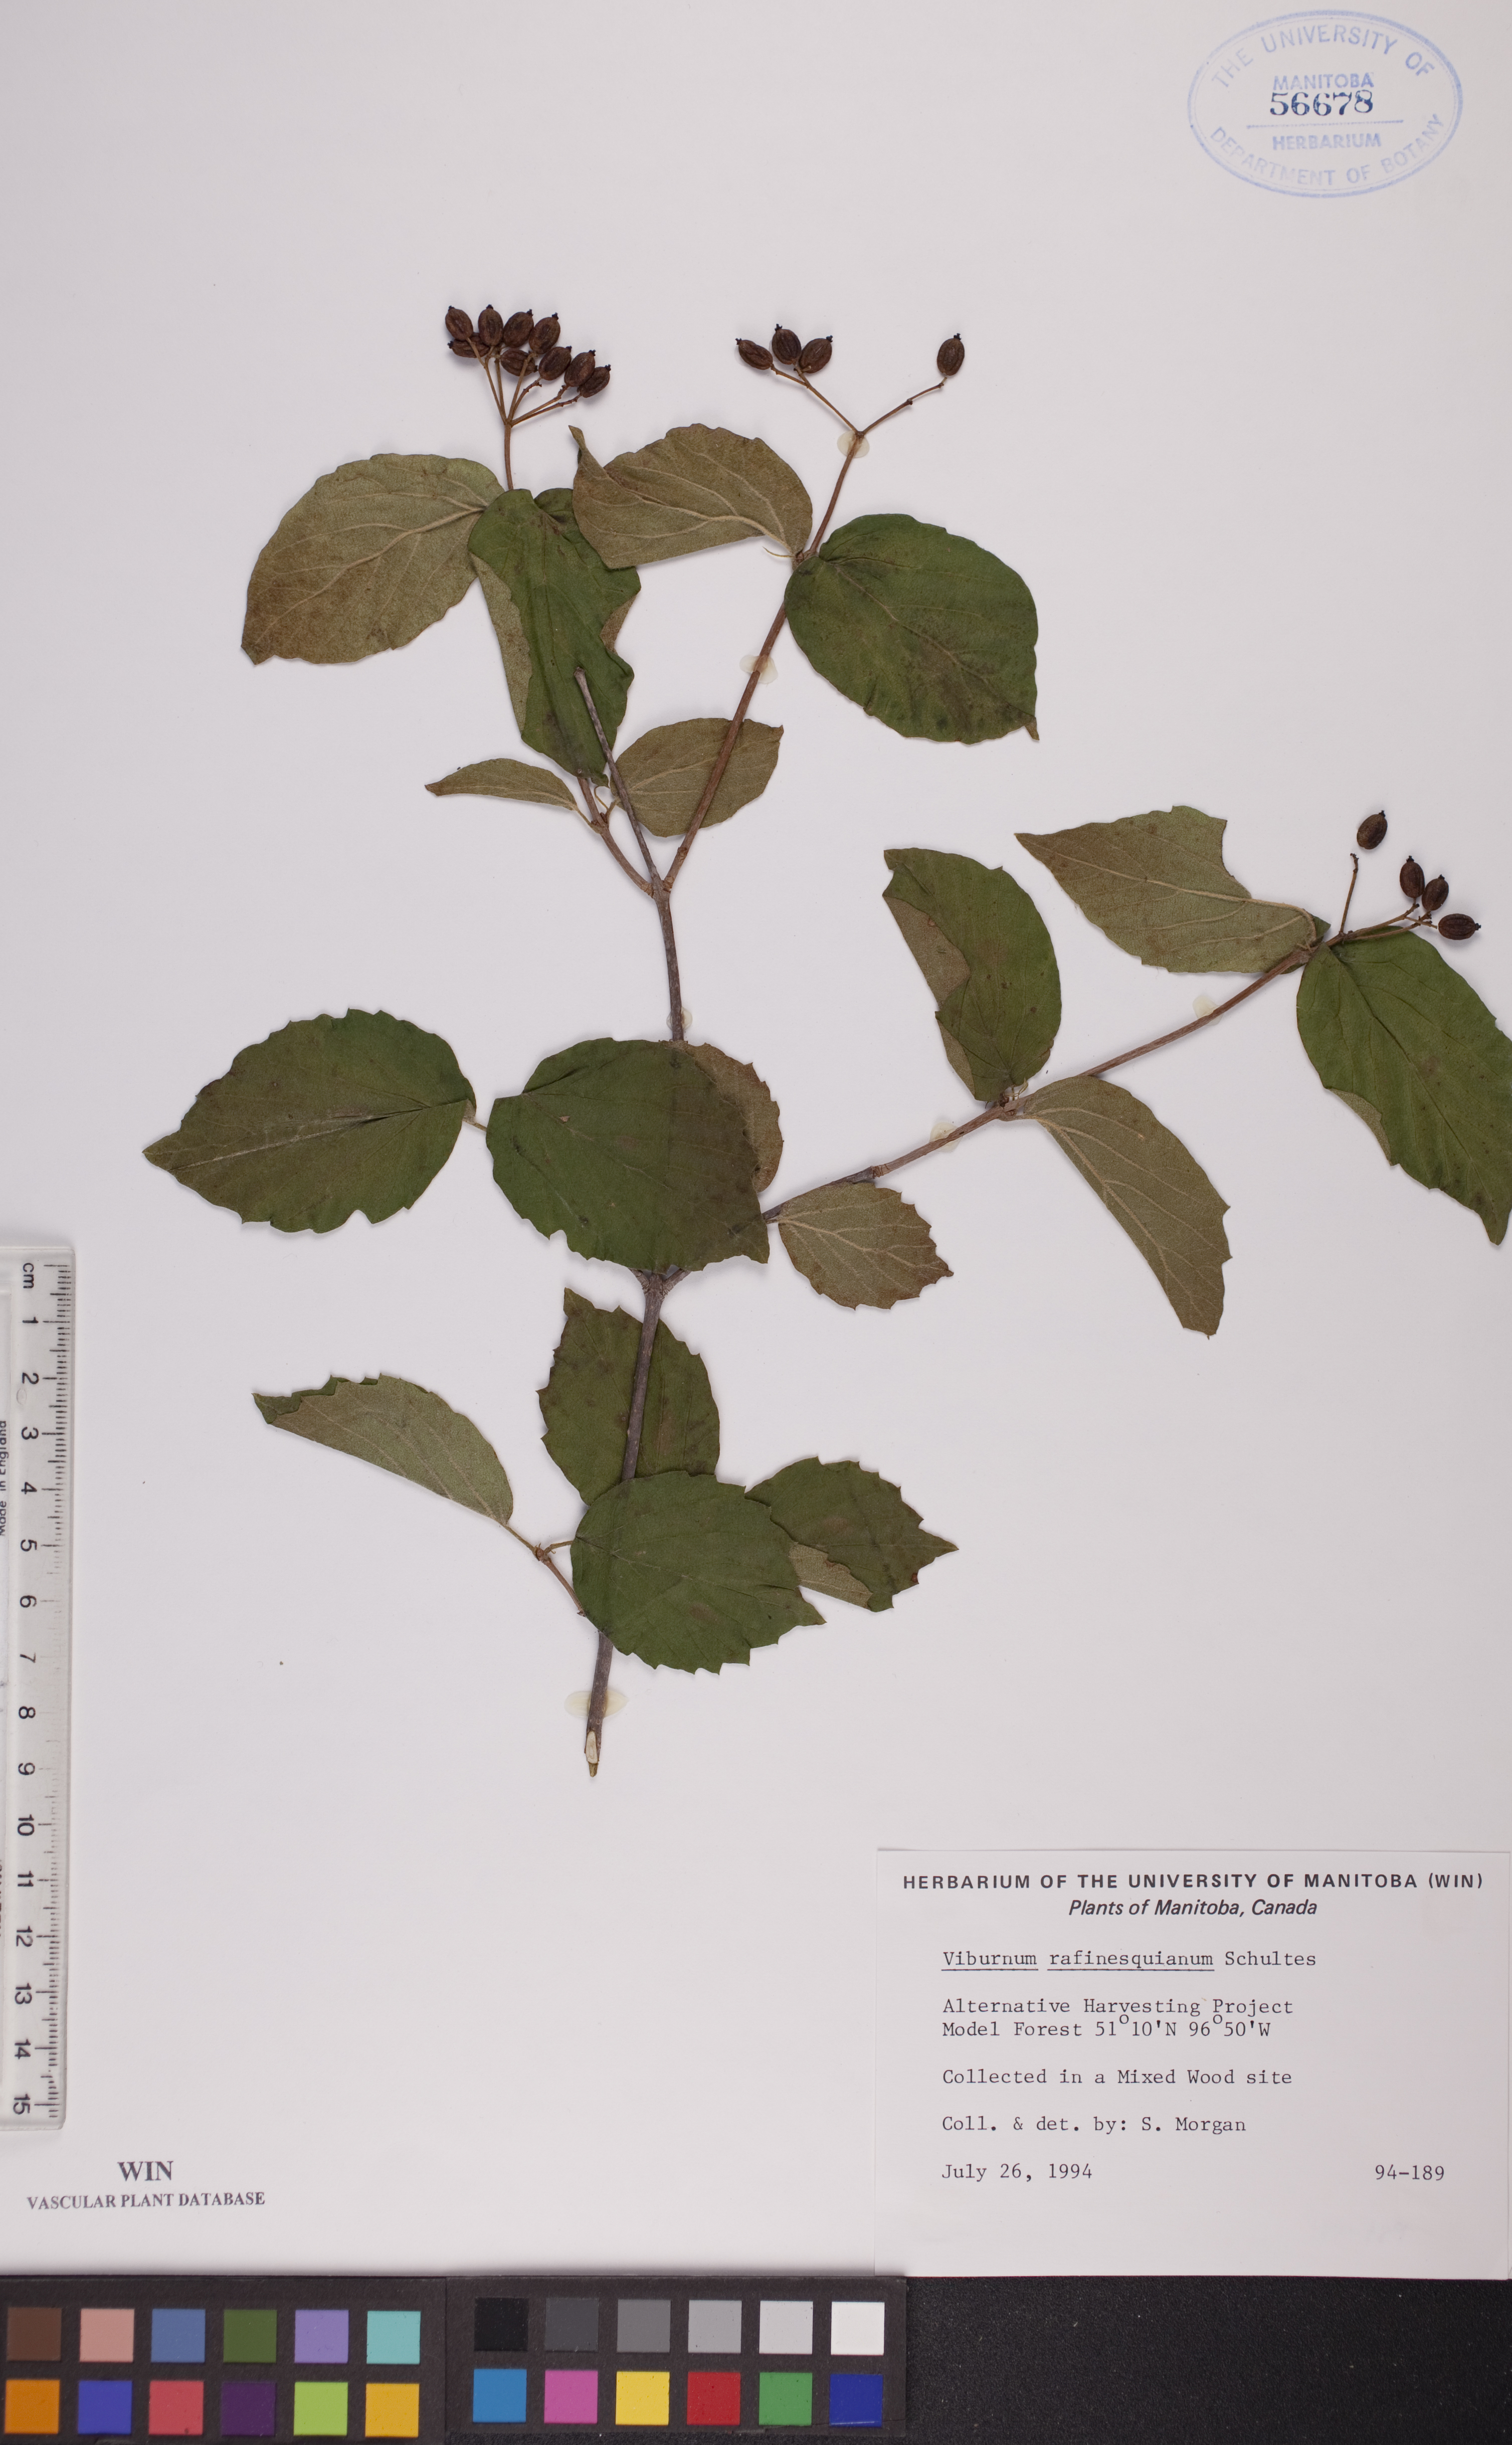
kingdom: Plantae
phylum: Tracheophyta
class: Magnoliopsida
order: Dipsacales
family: Viburnaceae
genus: Viburnum
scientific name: Viburnum rafinesquianum
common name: Downy arrow-wood
